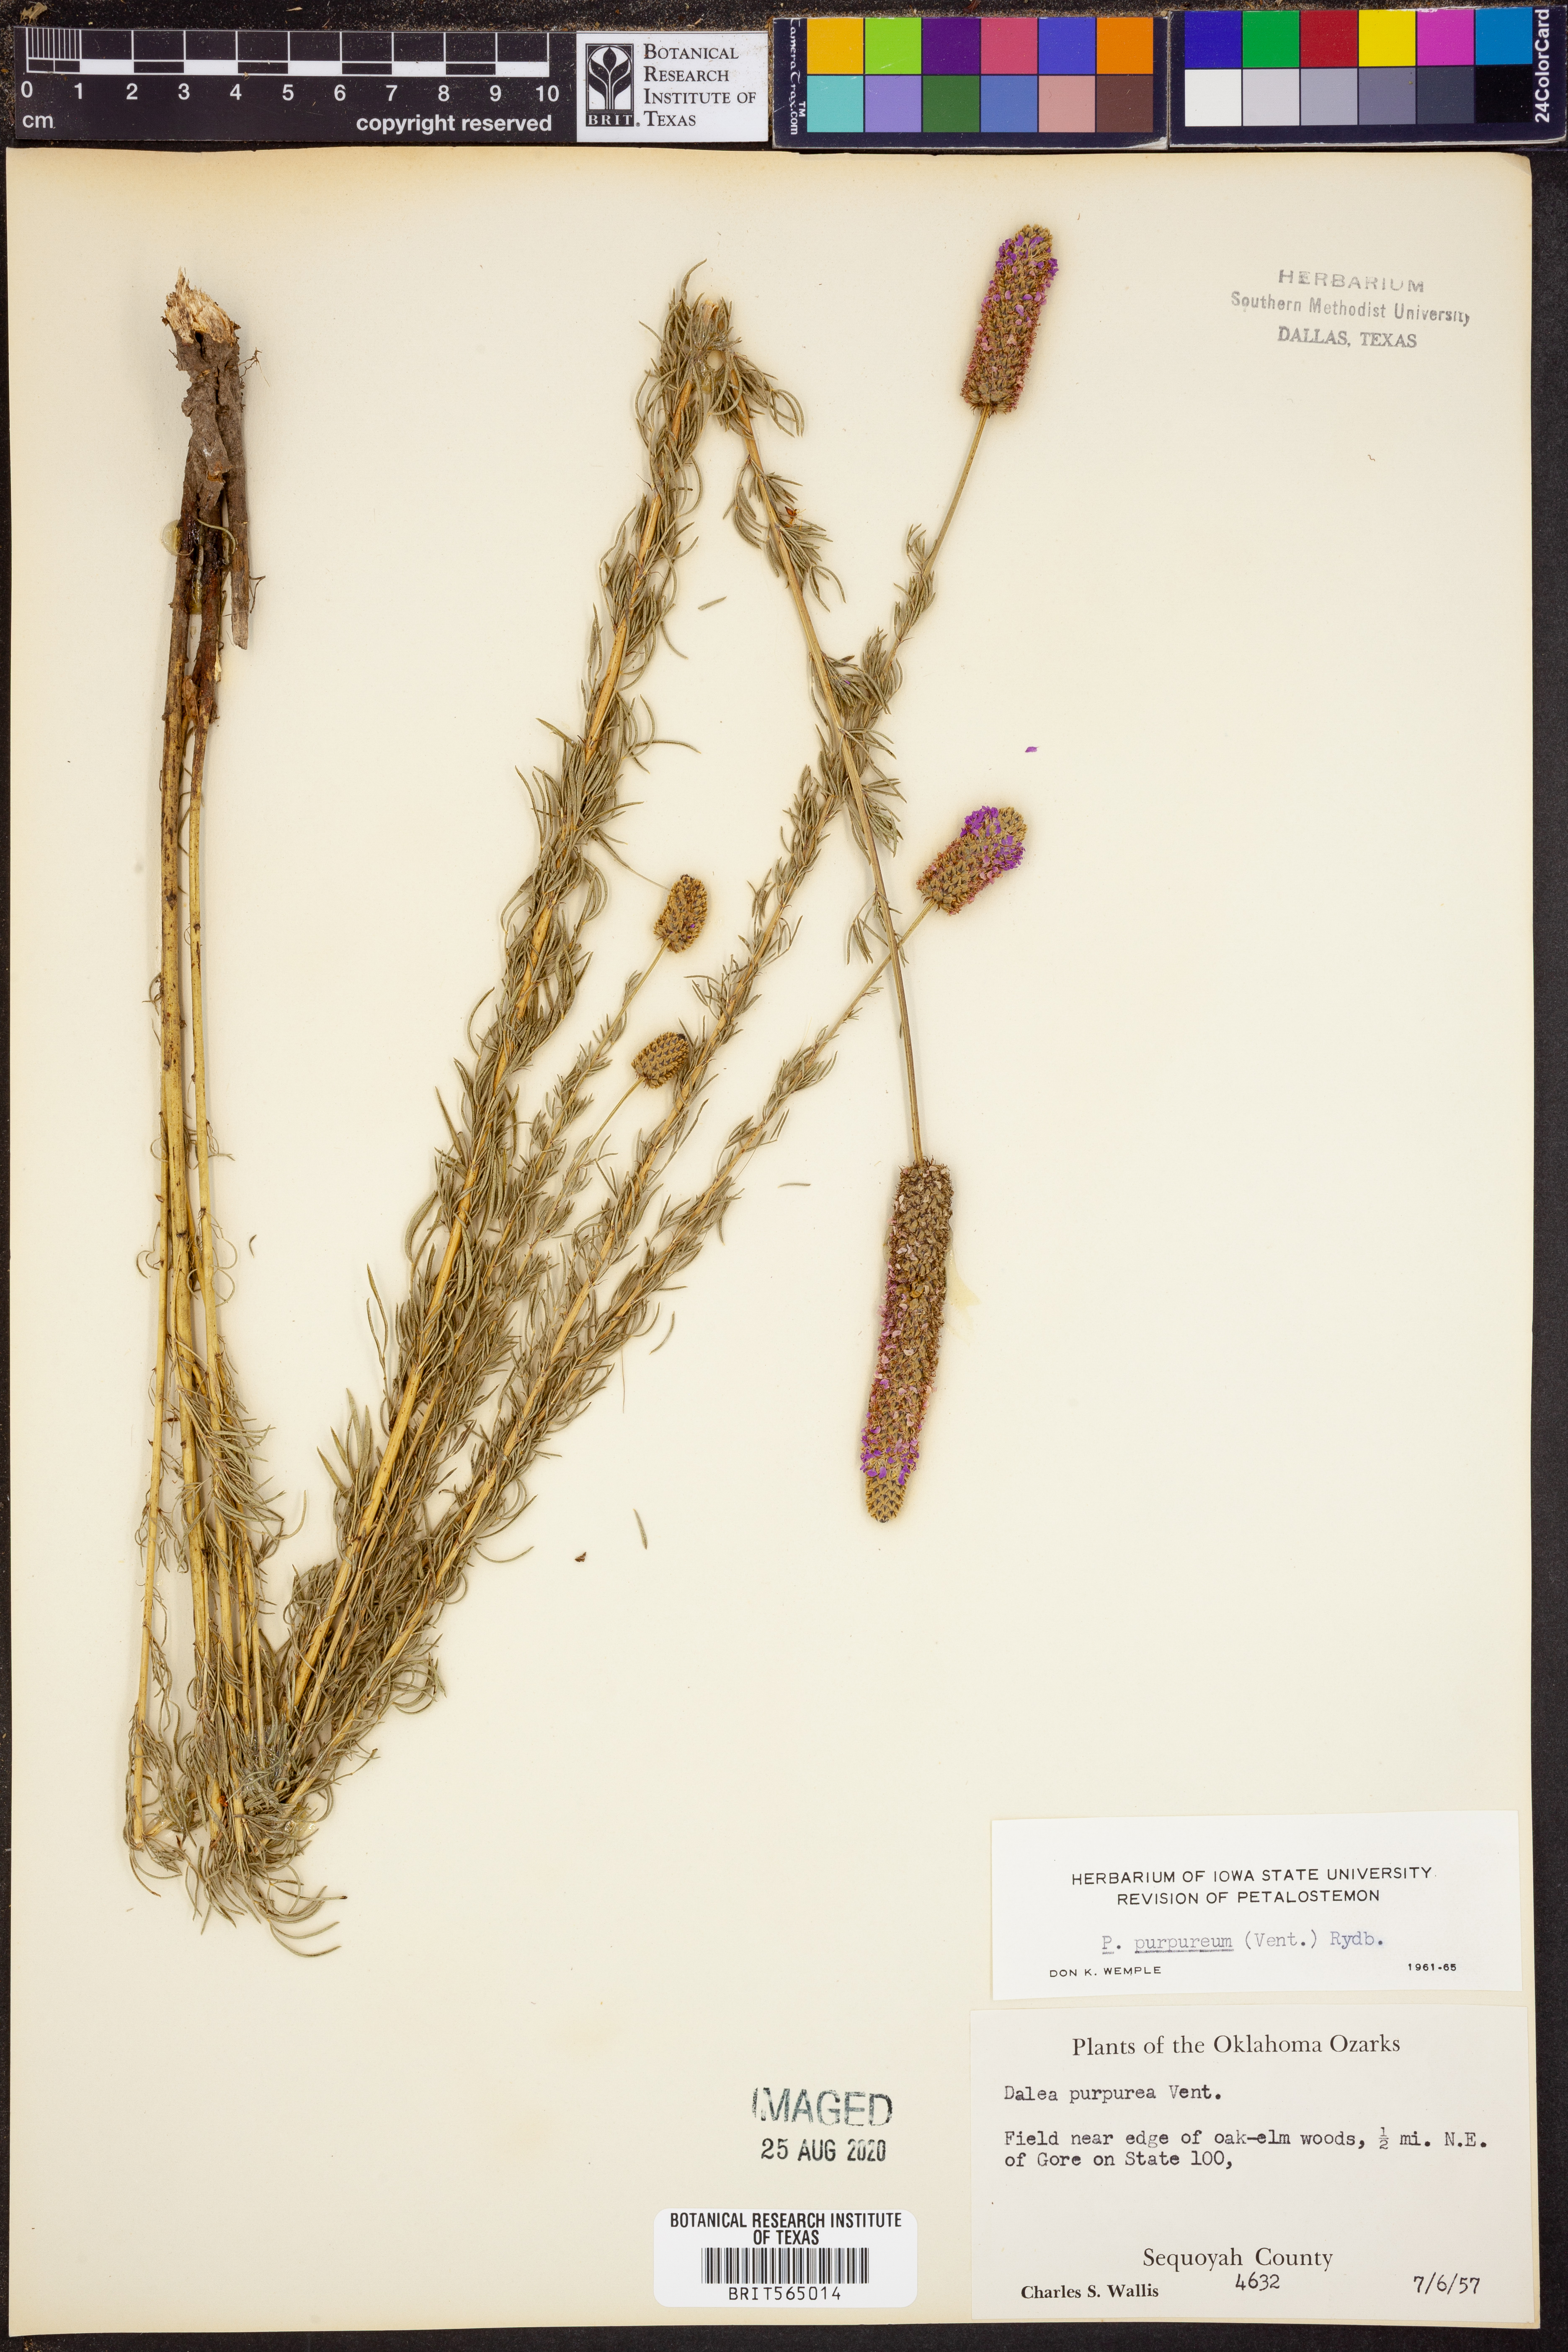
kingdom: Plantae
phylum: Tracheophyta
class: Magnoliopsida
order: Fabales
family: Fabaceae
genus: Dalea
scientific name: Dalea purpurea
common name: Purple prairie-clover
